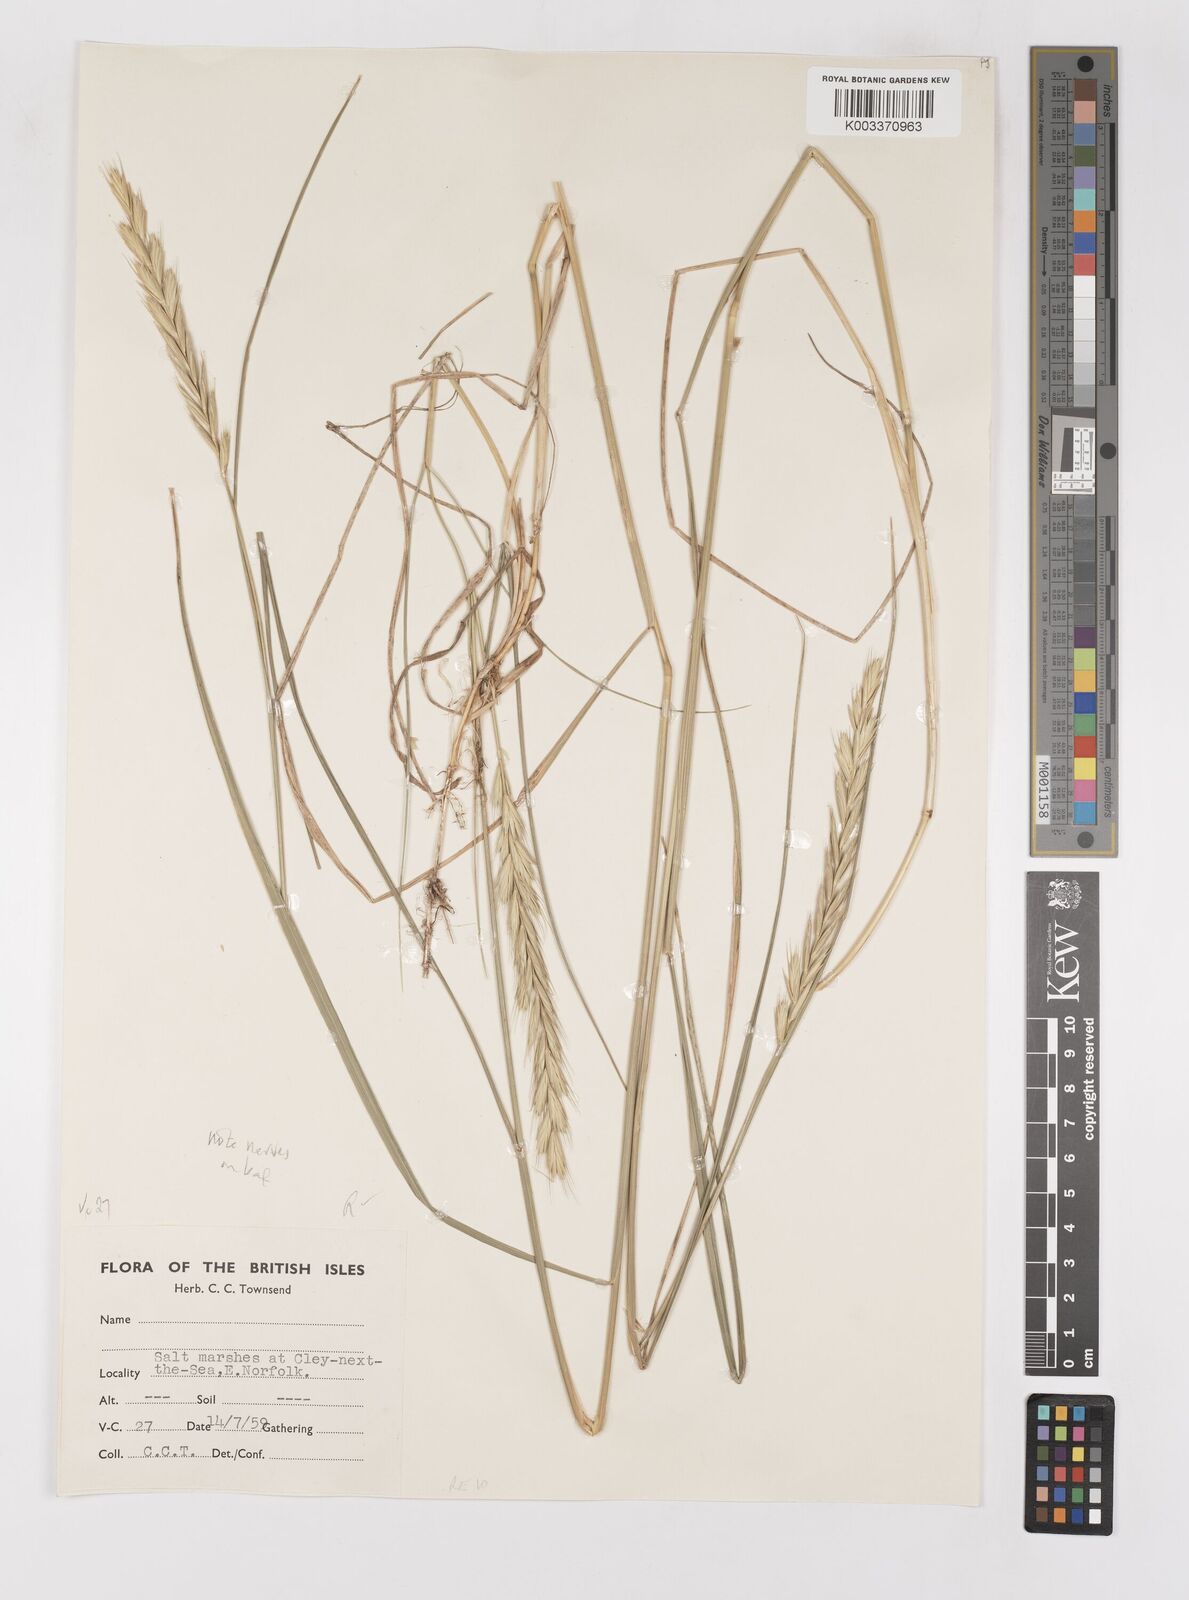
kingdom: Plantae
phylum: Tracheophyta
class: Liliopsida
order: Poales
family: Poaceae
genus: Elymus
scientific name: Elymus repens
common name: Quackgrass
